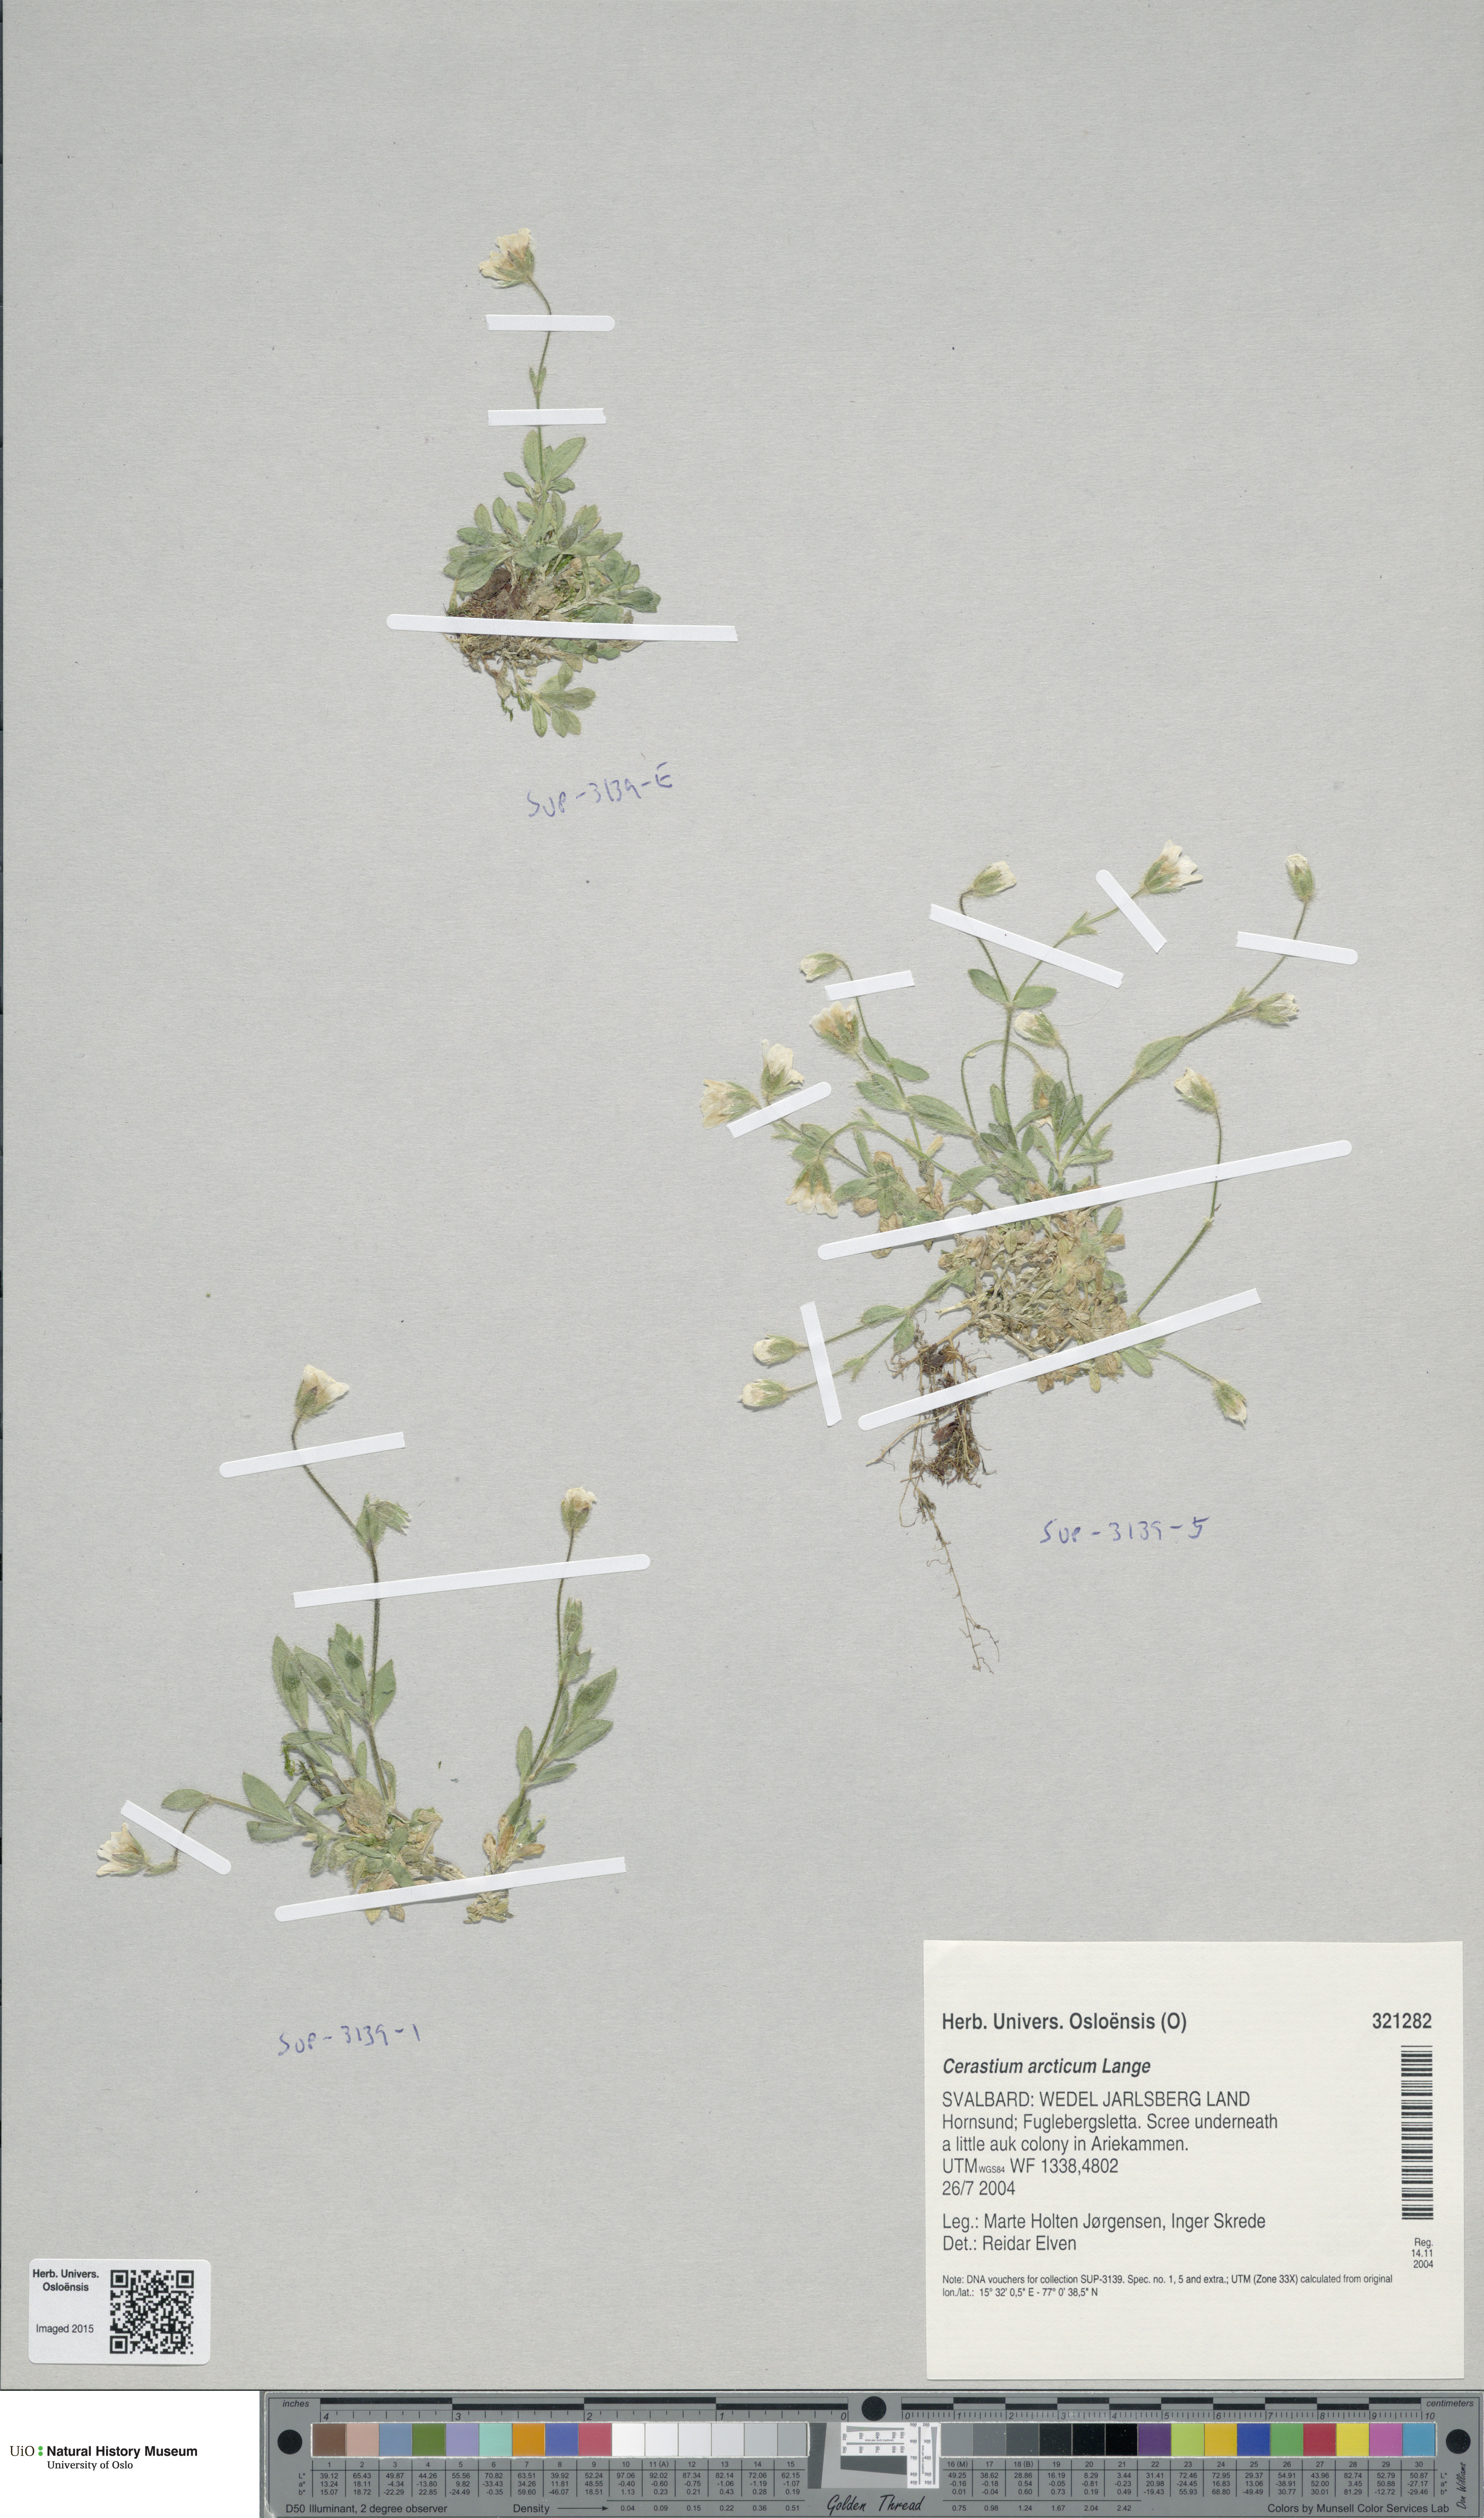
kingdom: Plantae
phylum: Tracheophyta
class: Magnoliopsida
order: Caryophyllales
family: Caryophyllaceae
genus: Cerastium
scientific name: Cerastium arcticum
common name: Arctic mouse-ear
